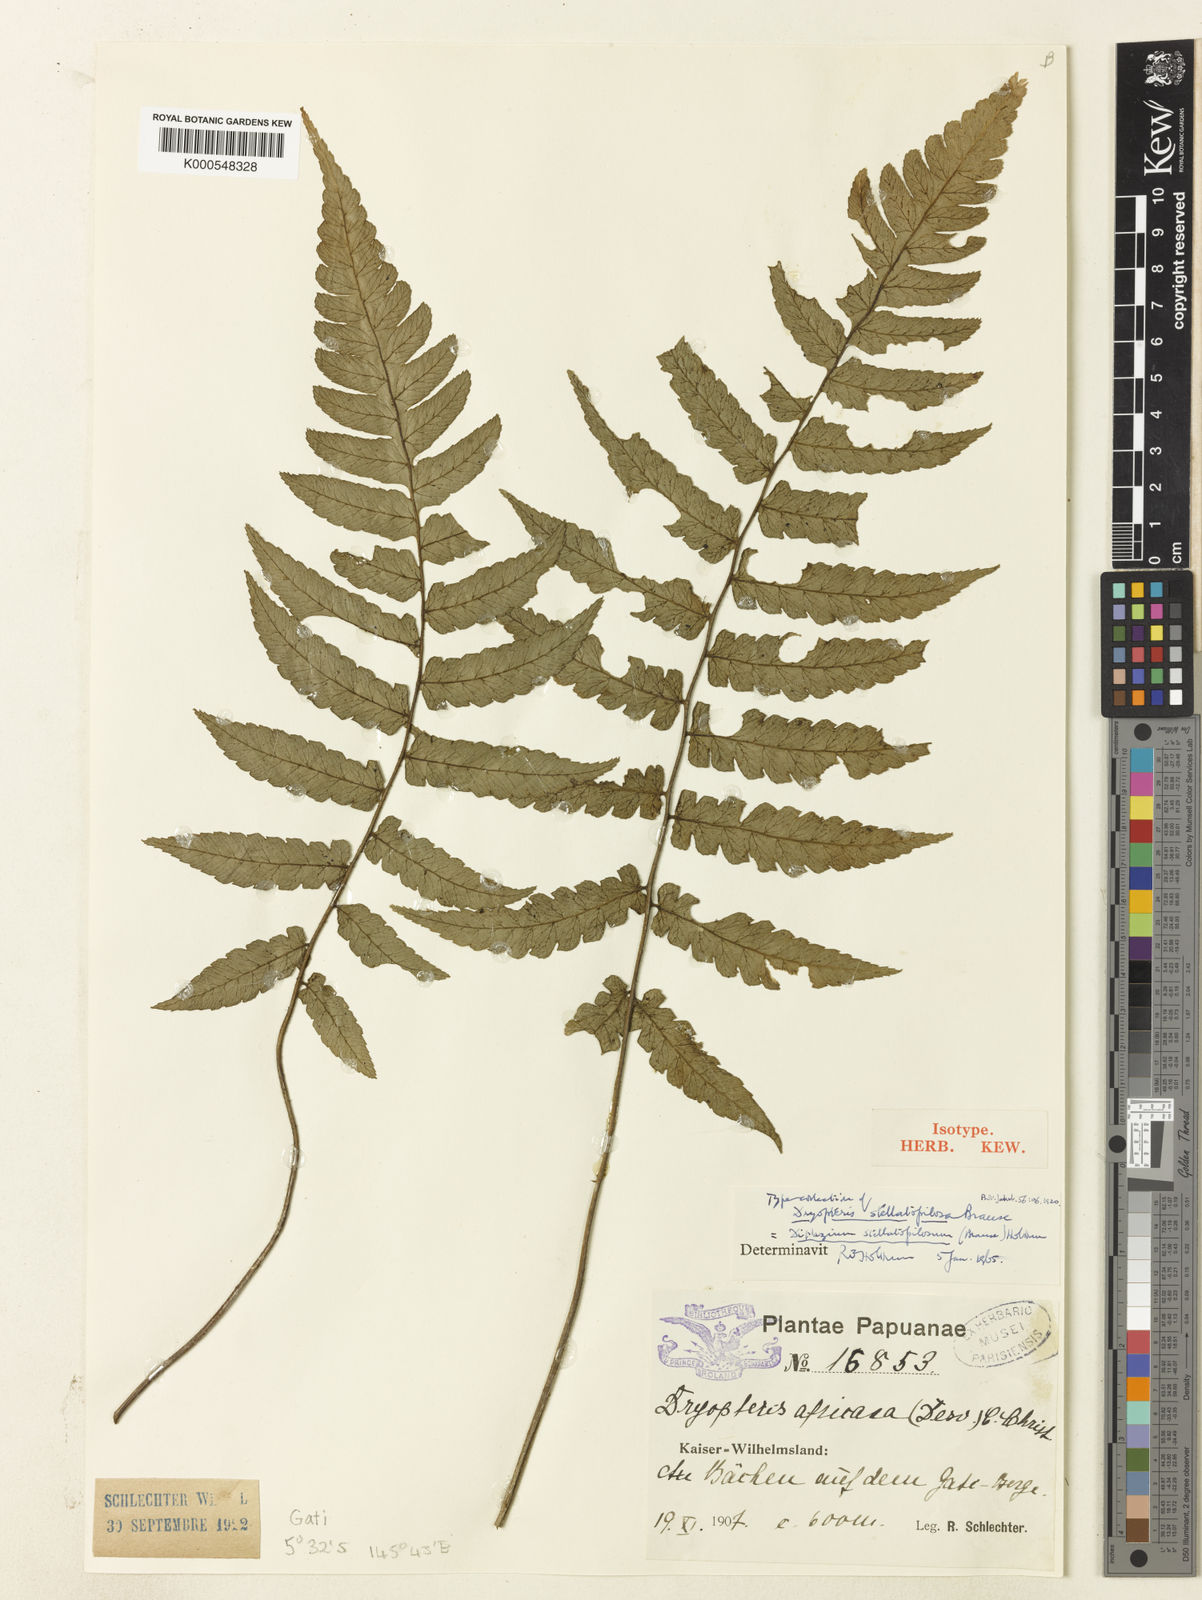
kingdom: Plantae
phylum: Tracheophyta
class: Polypodiopsida
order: Polypodiales
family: Athyriaceae
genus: Diplazium
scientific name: Diplazium stellatopilosum
